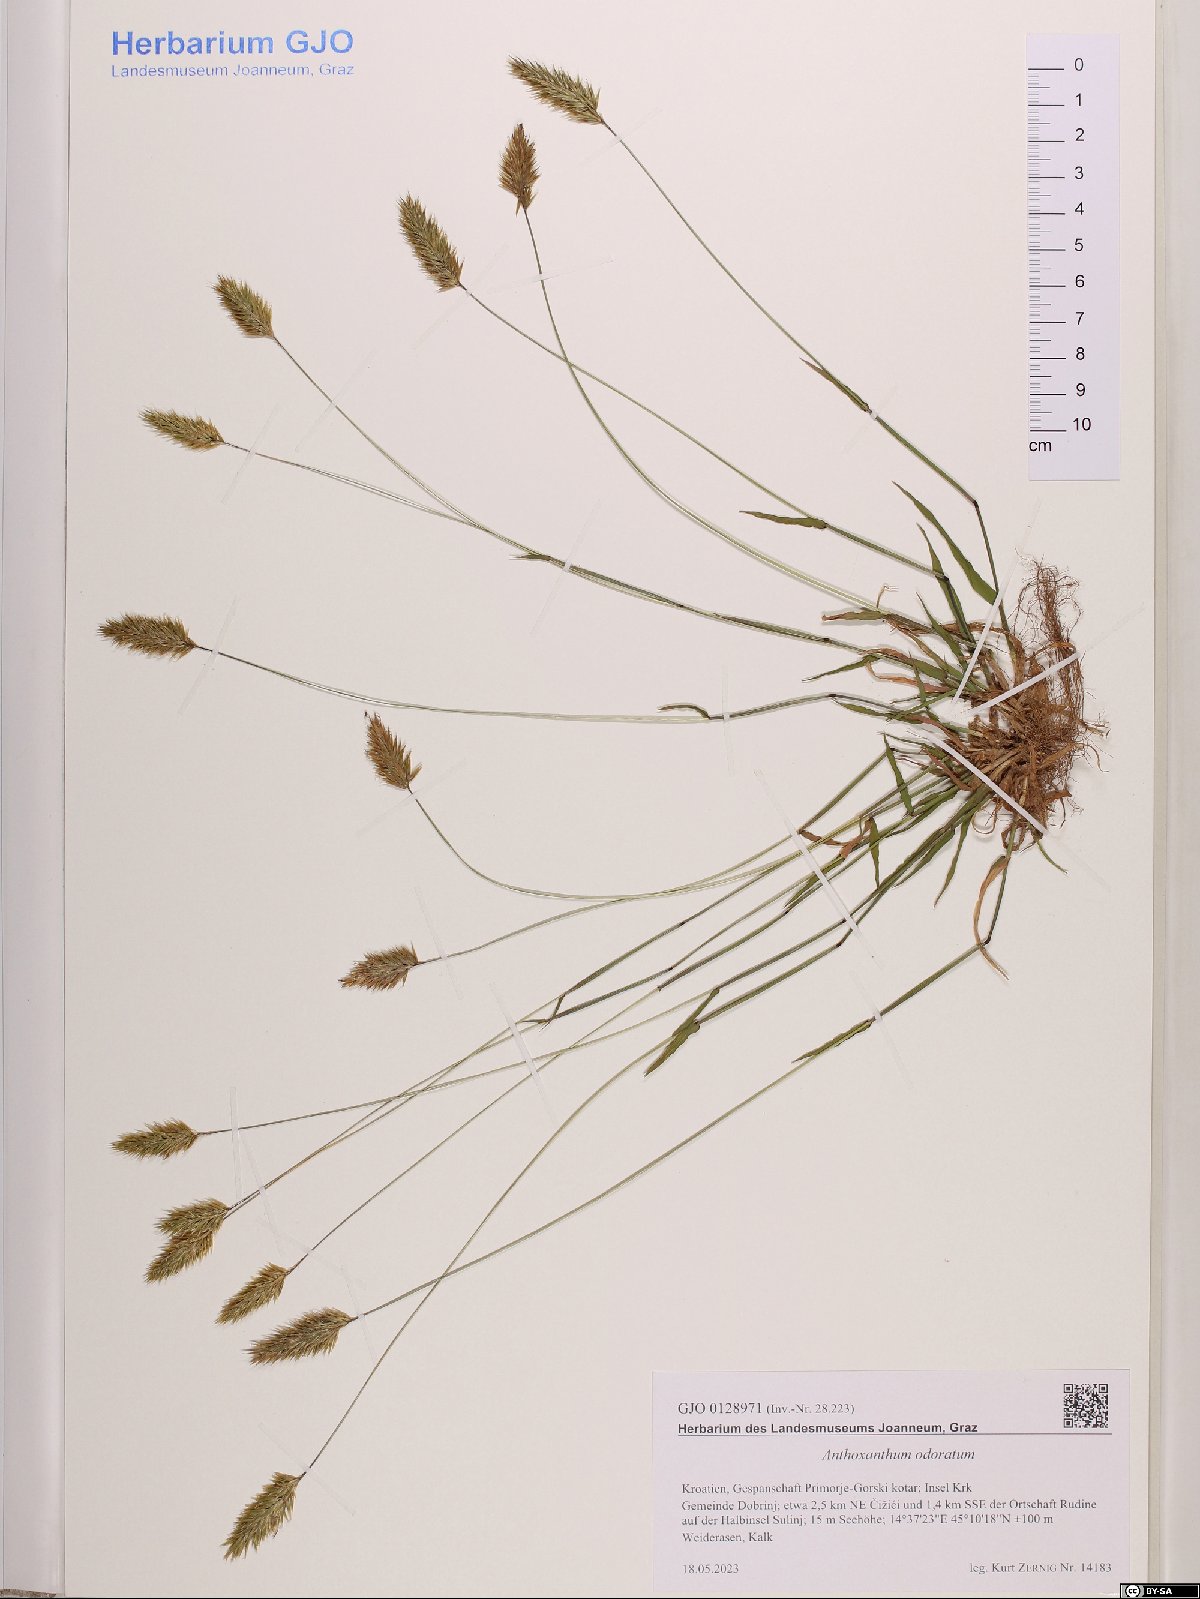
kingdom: Plantae
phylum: Tracheophyta
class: Liliopsida
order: Poales
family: Poaceae
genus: Anthoxanthum
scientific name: Anthoxanthum odoratum
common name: Sweet vernalgrass
